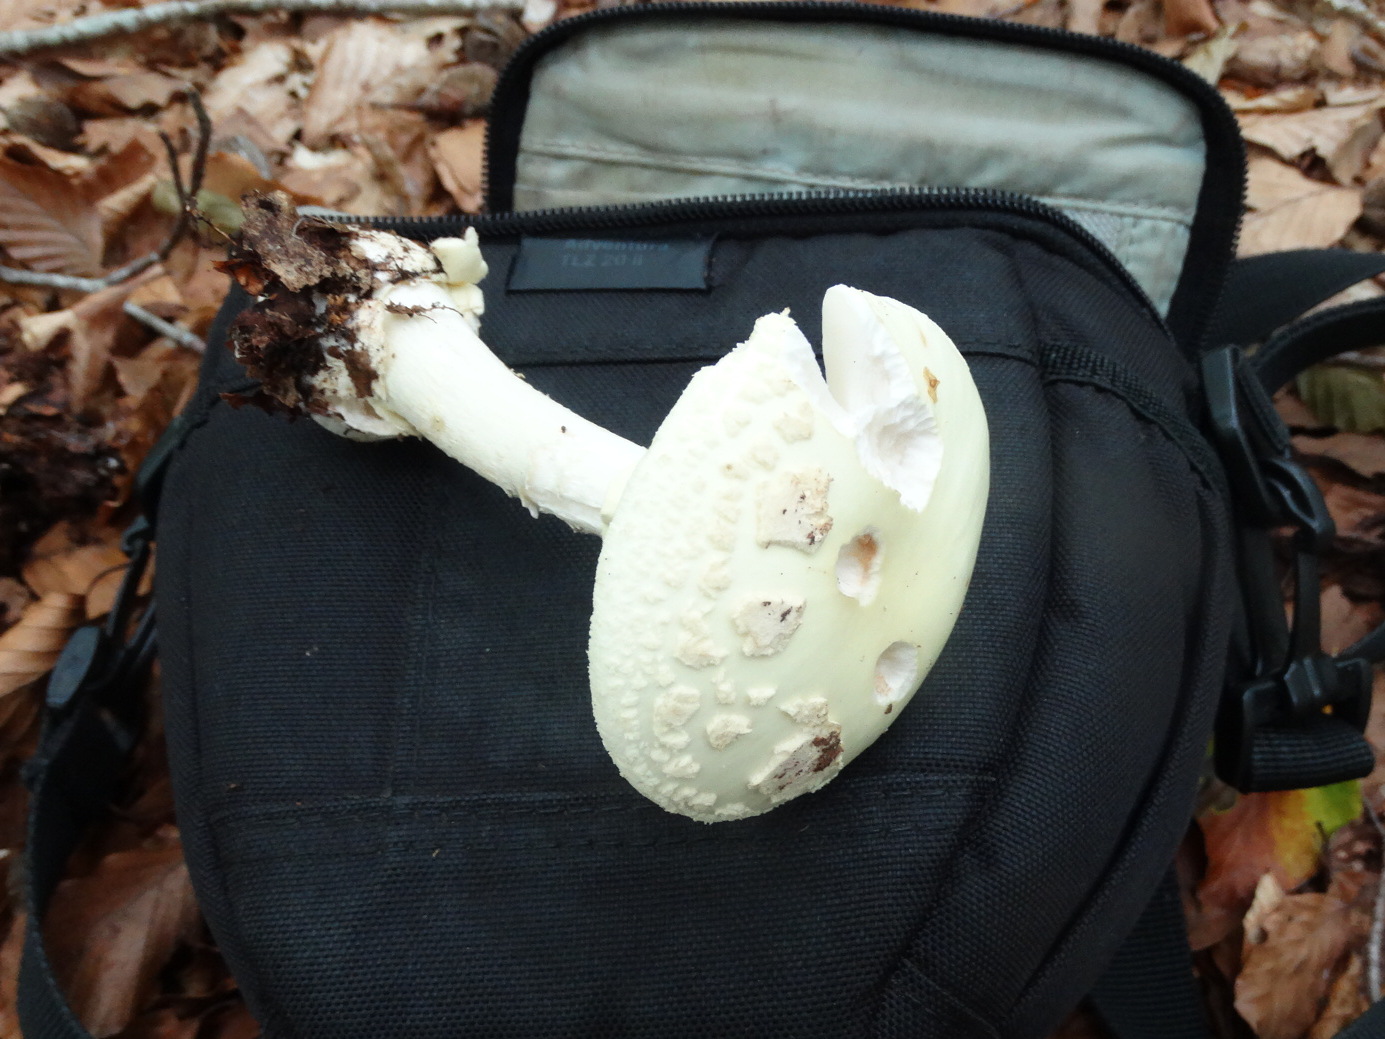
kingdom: Fungi
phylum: Basidiomycota
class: Agaricomycetes
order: Agaricales
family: Amanitaceae
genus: Amanita
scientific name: Amanita citrina
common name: kugleknoldet fluesvamp
